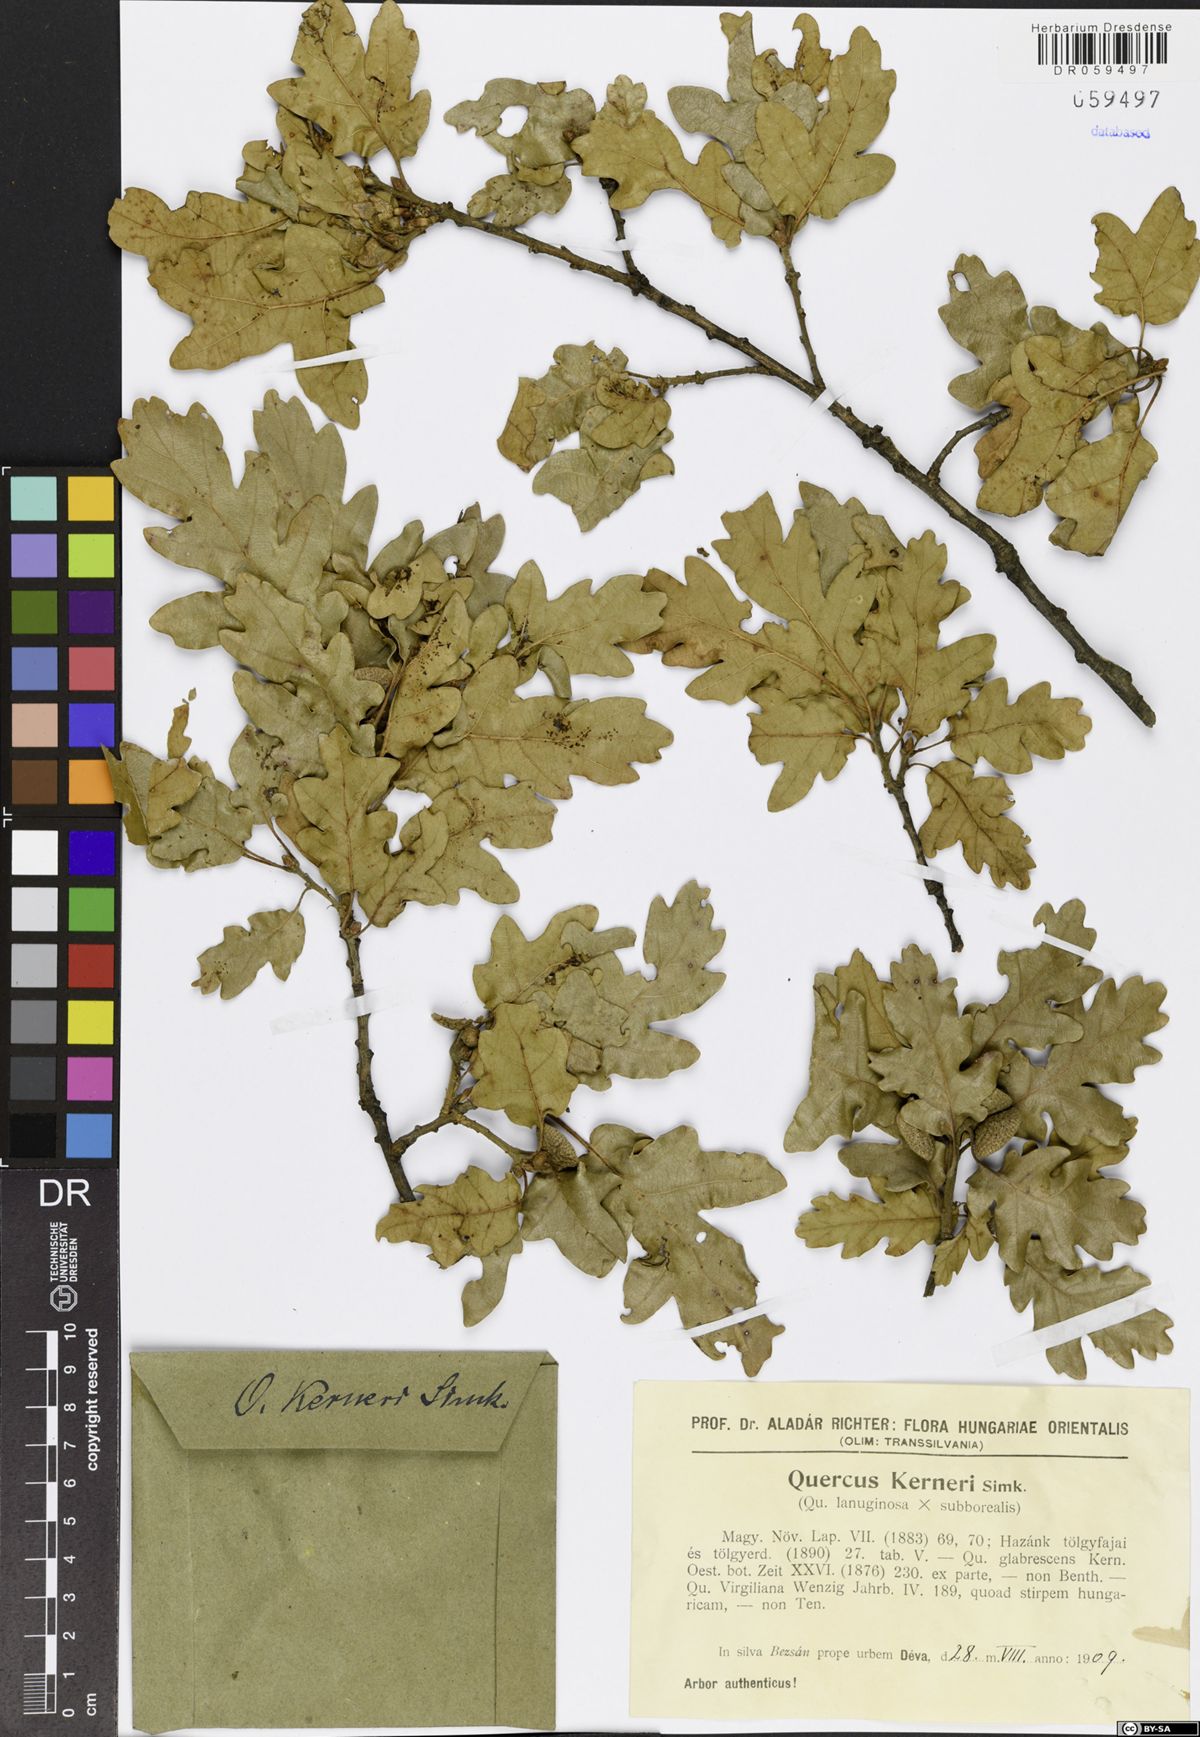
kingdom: Plantae
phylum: Tracheophyta
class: Magnoliopsida
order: Fagales
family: Fagaceae
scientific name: Fagaceae
